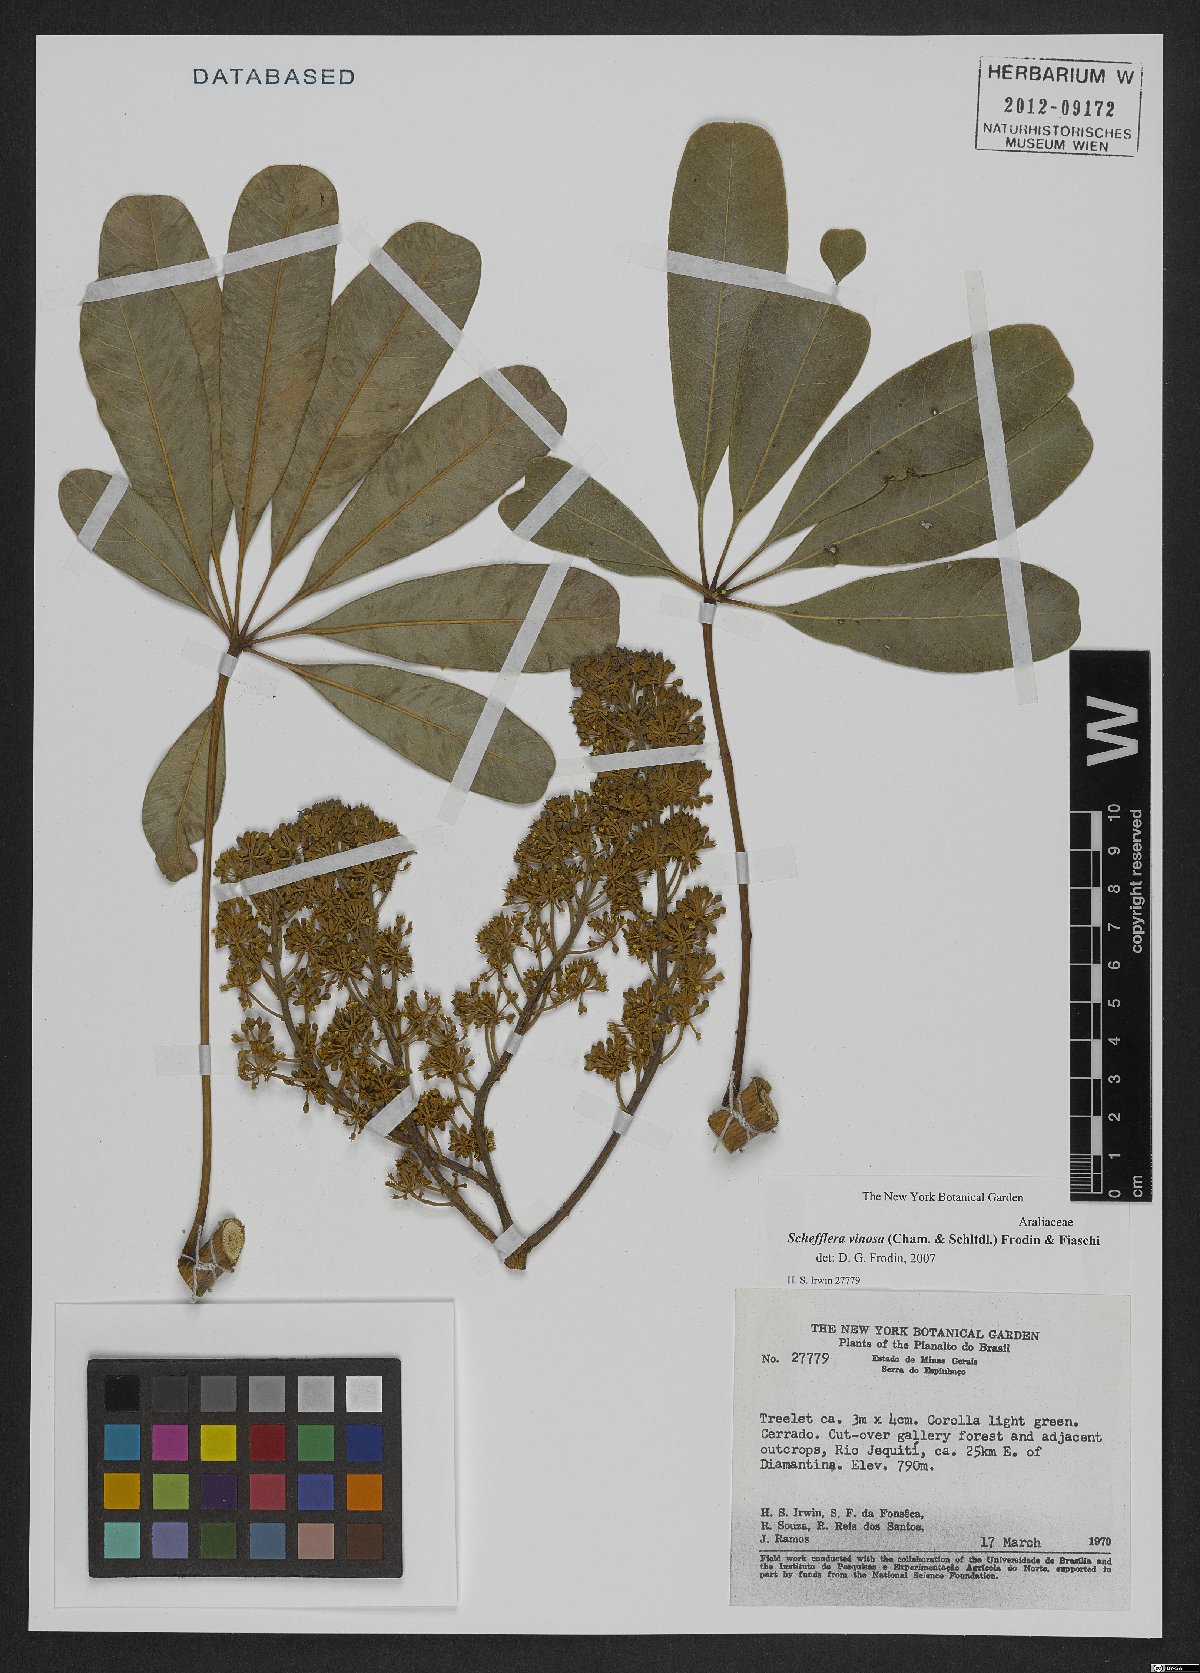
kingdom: Plantae
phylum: Tracheophyta
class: Magnoliopsida
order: Apiales
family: Araliaceae
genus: Didymopanax
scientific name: Didymopanax vinosus
